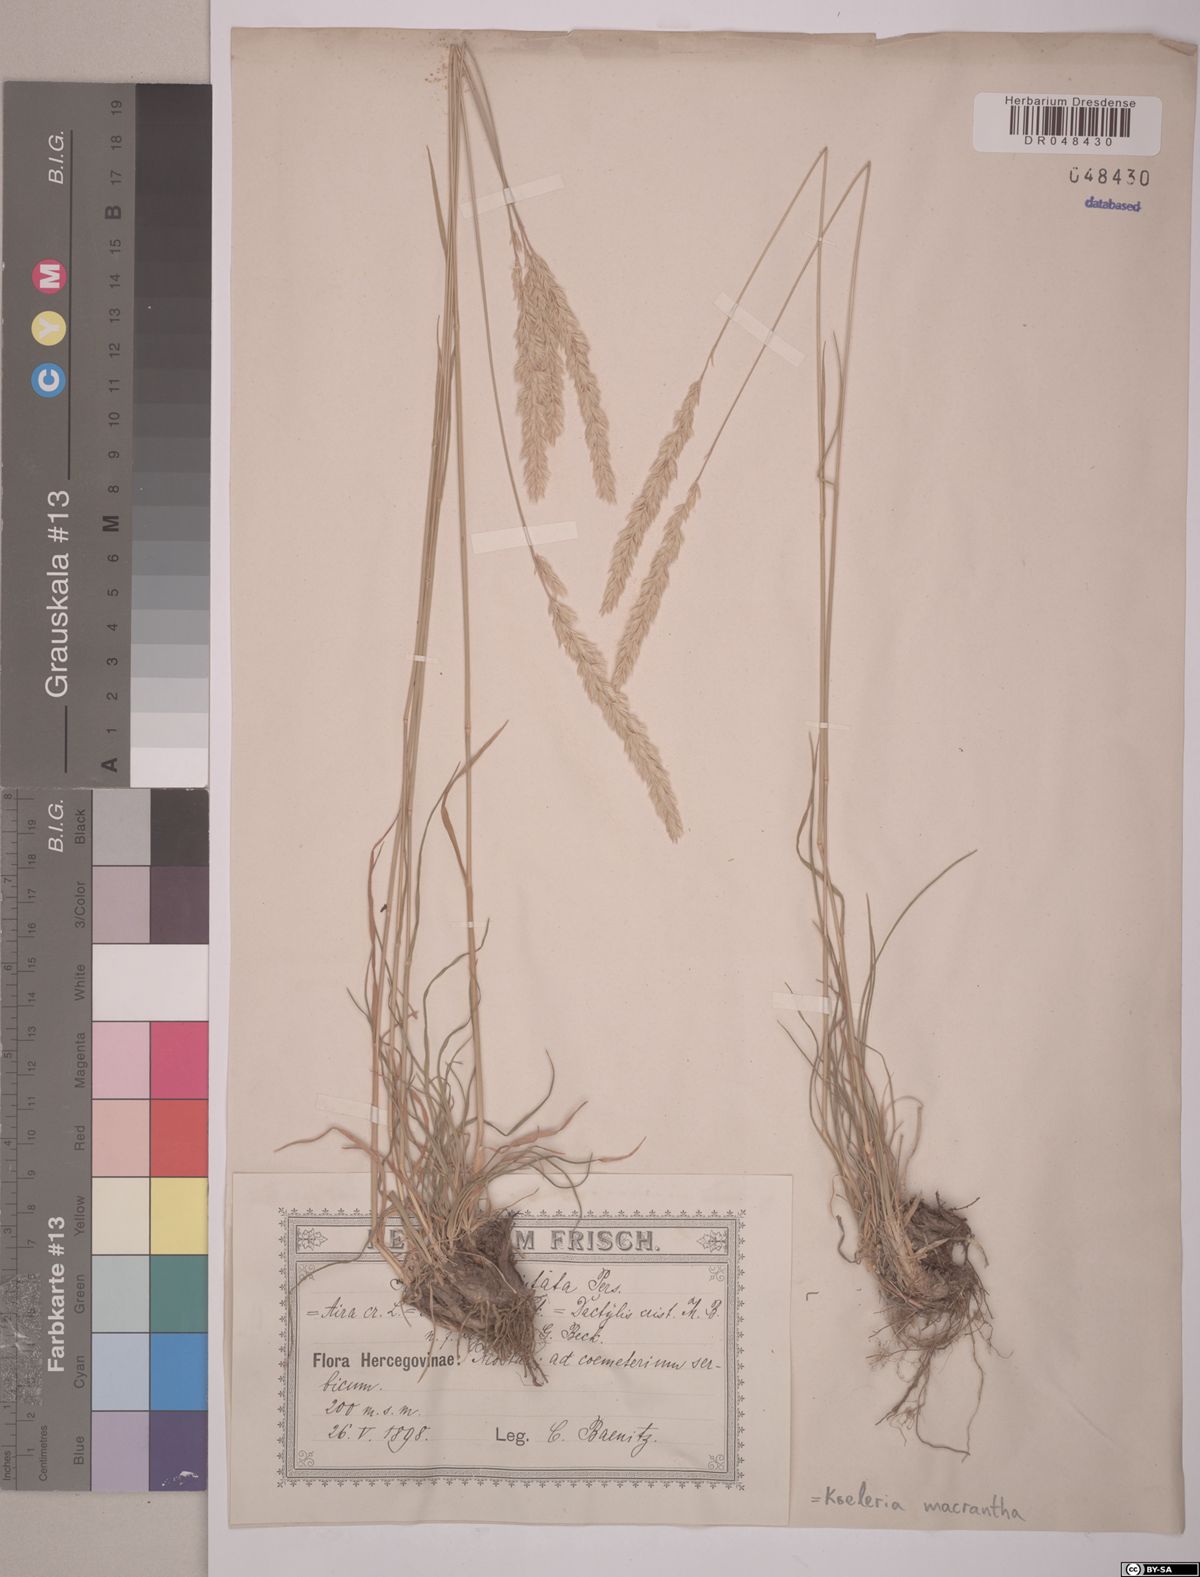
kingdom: Plantae
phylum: Tracheophyta
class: Liliopsida
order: Poales
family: Poaceae
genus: Koeleria
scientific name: Koeleria macrantha
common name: Crested hair-grass
